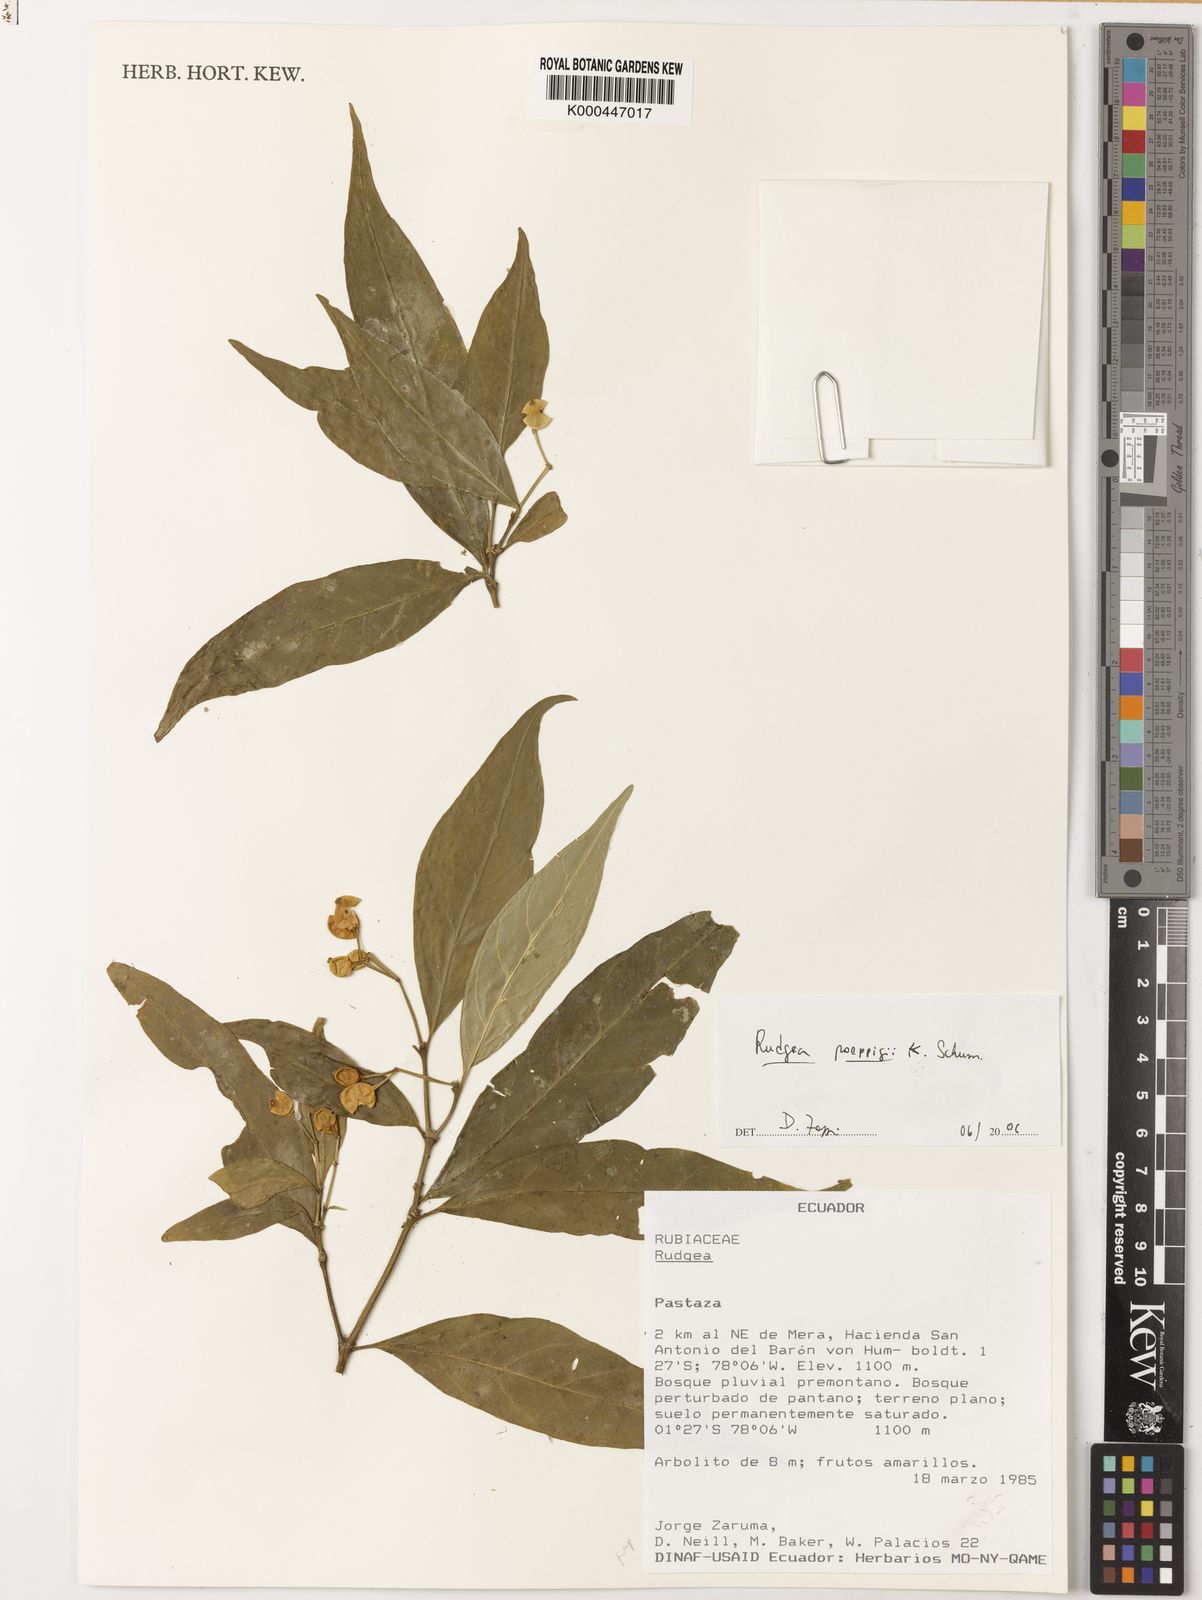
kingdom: Plantae
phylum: Tracheophyta
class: Magnoliopsida
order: Gentianales
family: Rubiaceae
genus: Rudgea
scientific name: Rudgea poeppigii
